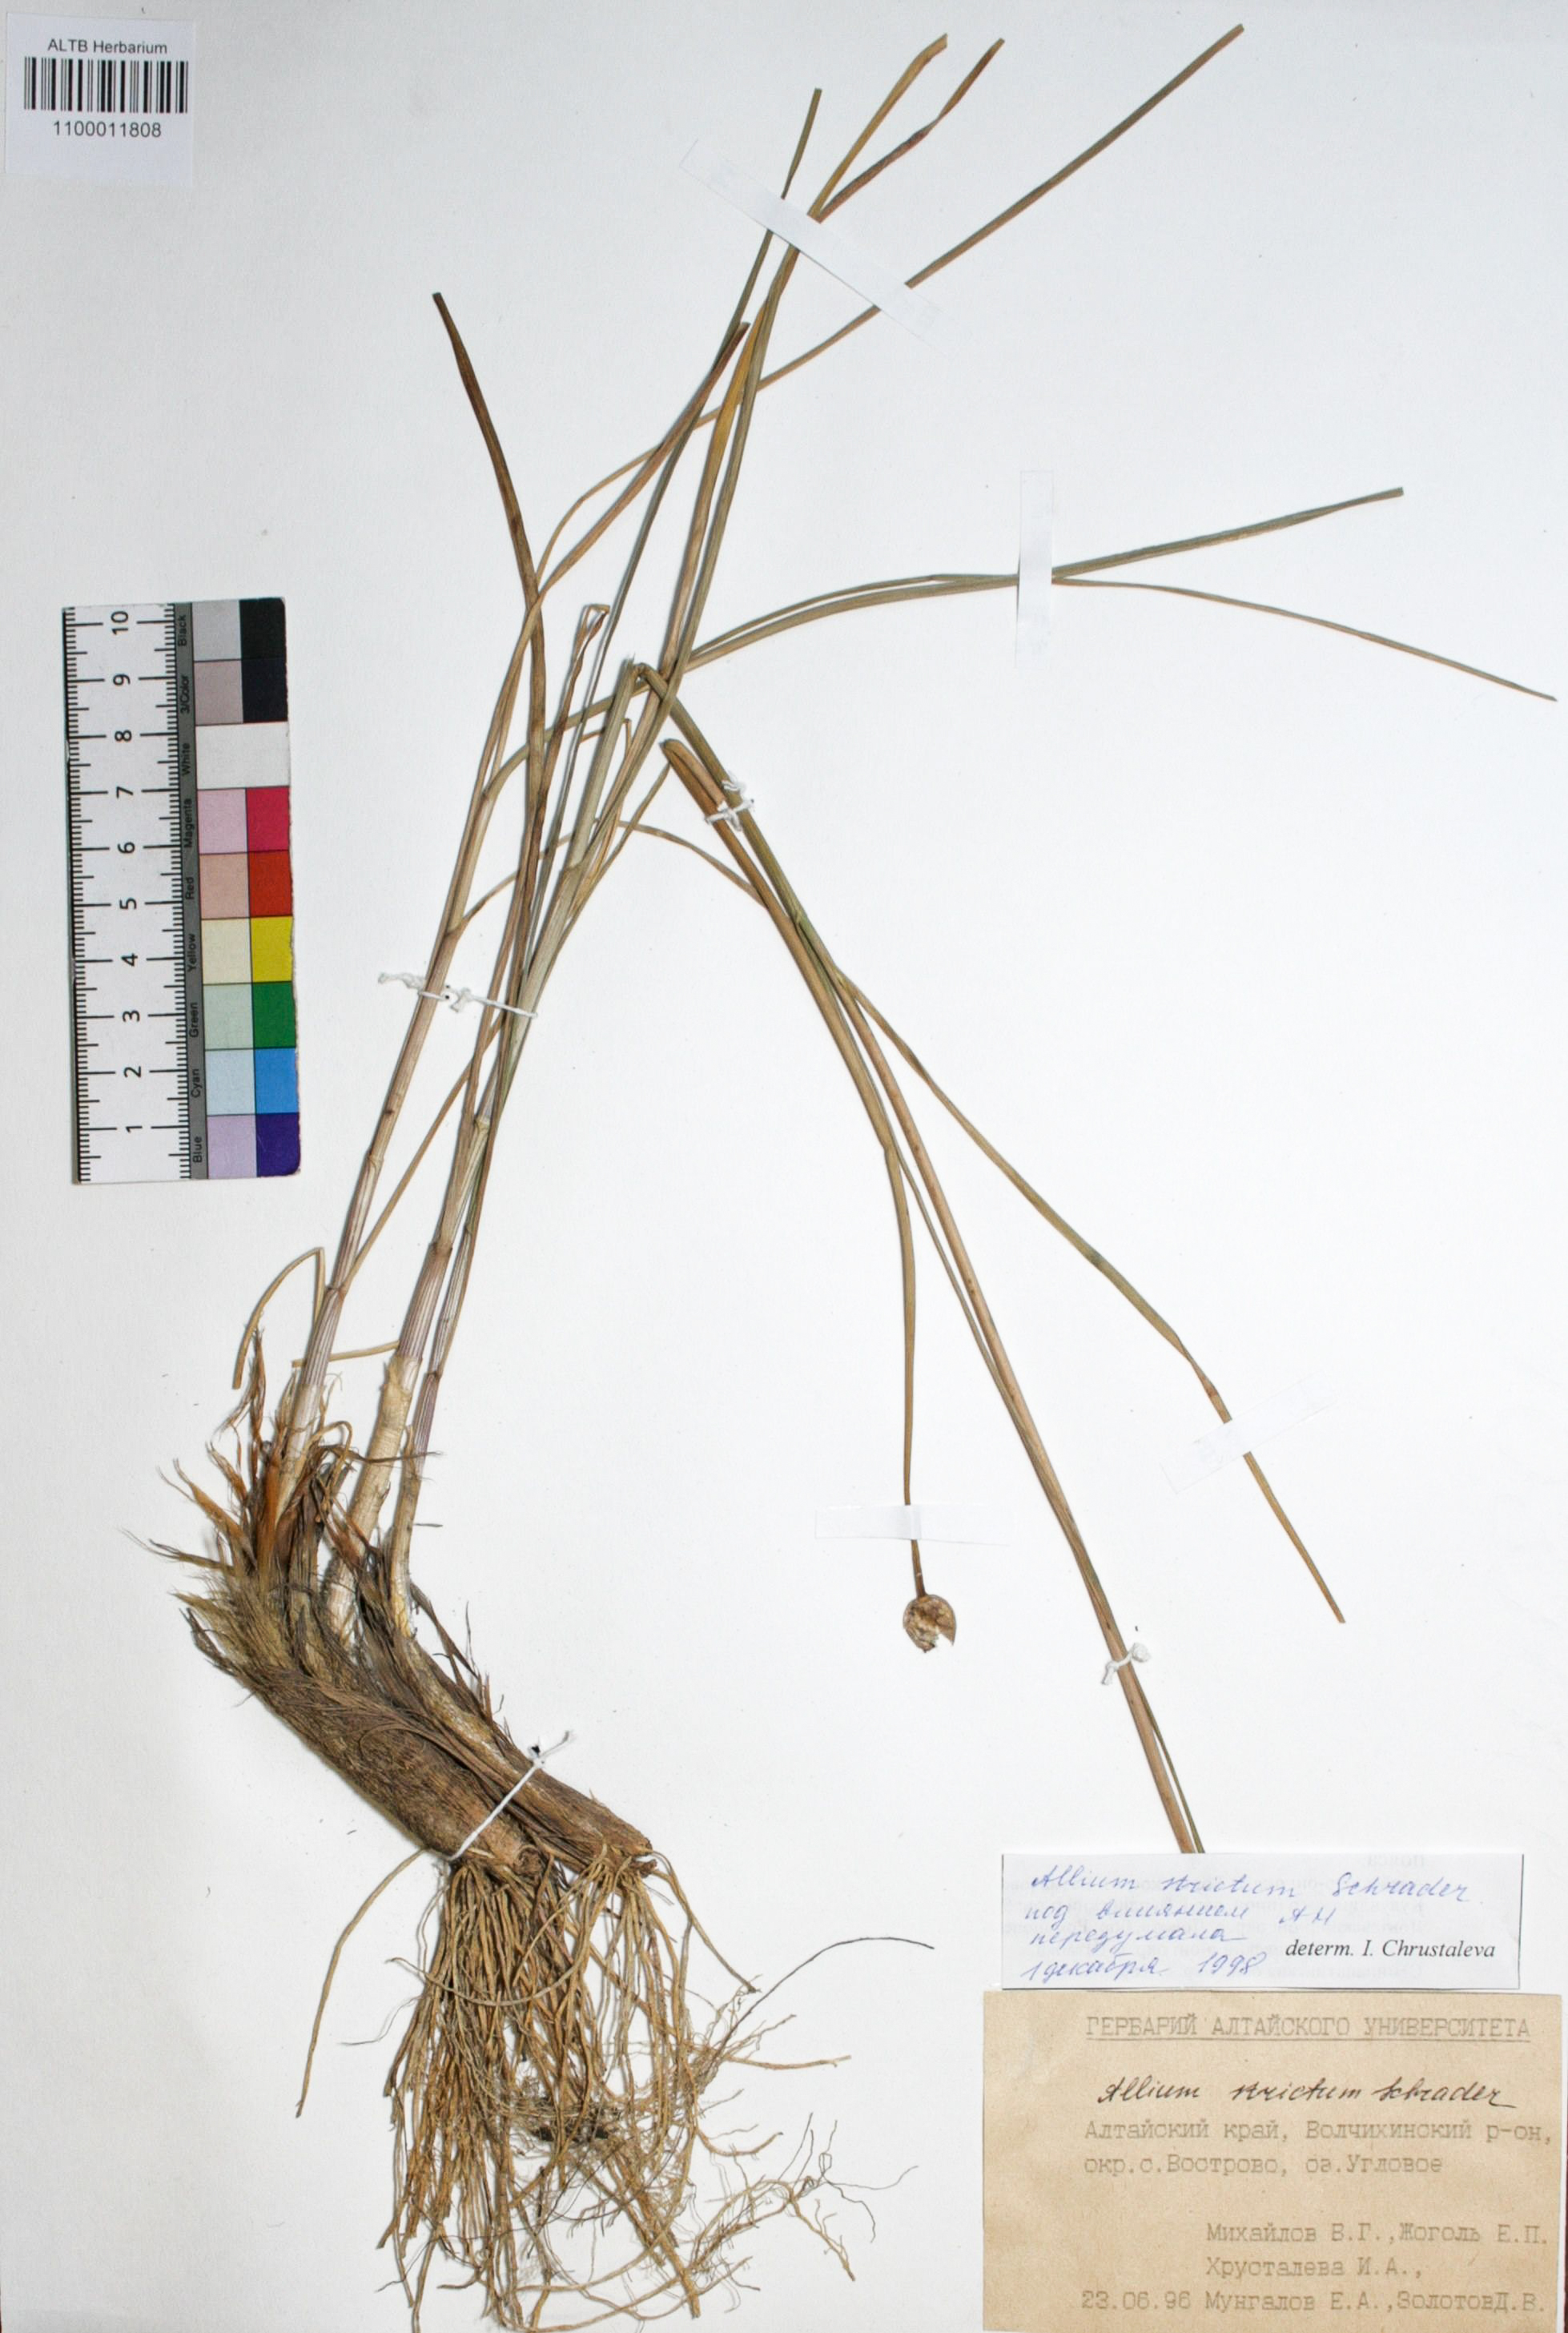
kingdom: Plantae
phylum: Tracheophyta
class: Liliopsida
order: Asparagales
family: Amaryllidaceae
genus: Allium
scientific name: Allium strictum
